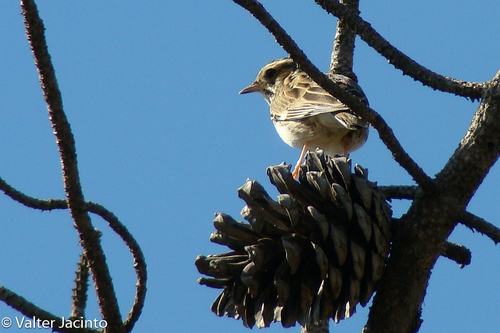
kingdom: Animalia
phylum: Chordata
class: Aves
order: Passeriformes
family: Alaudidae
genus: Lullula
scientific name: Lullula arborea
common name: Woodlark
